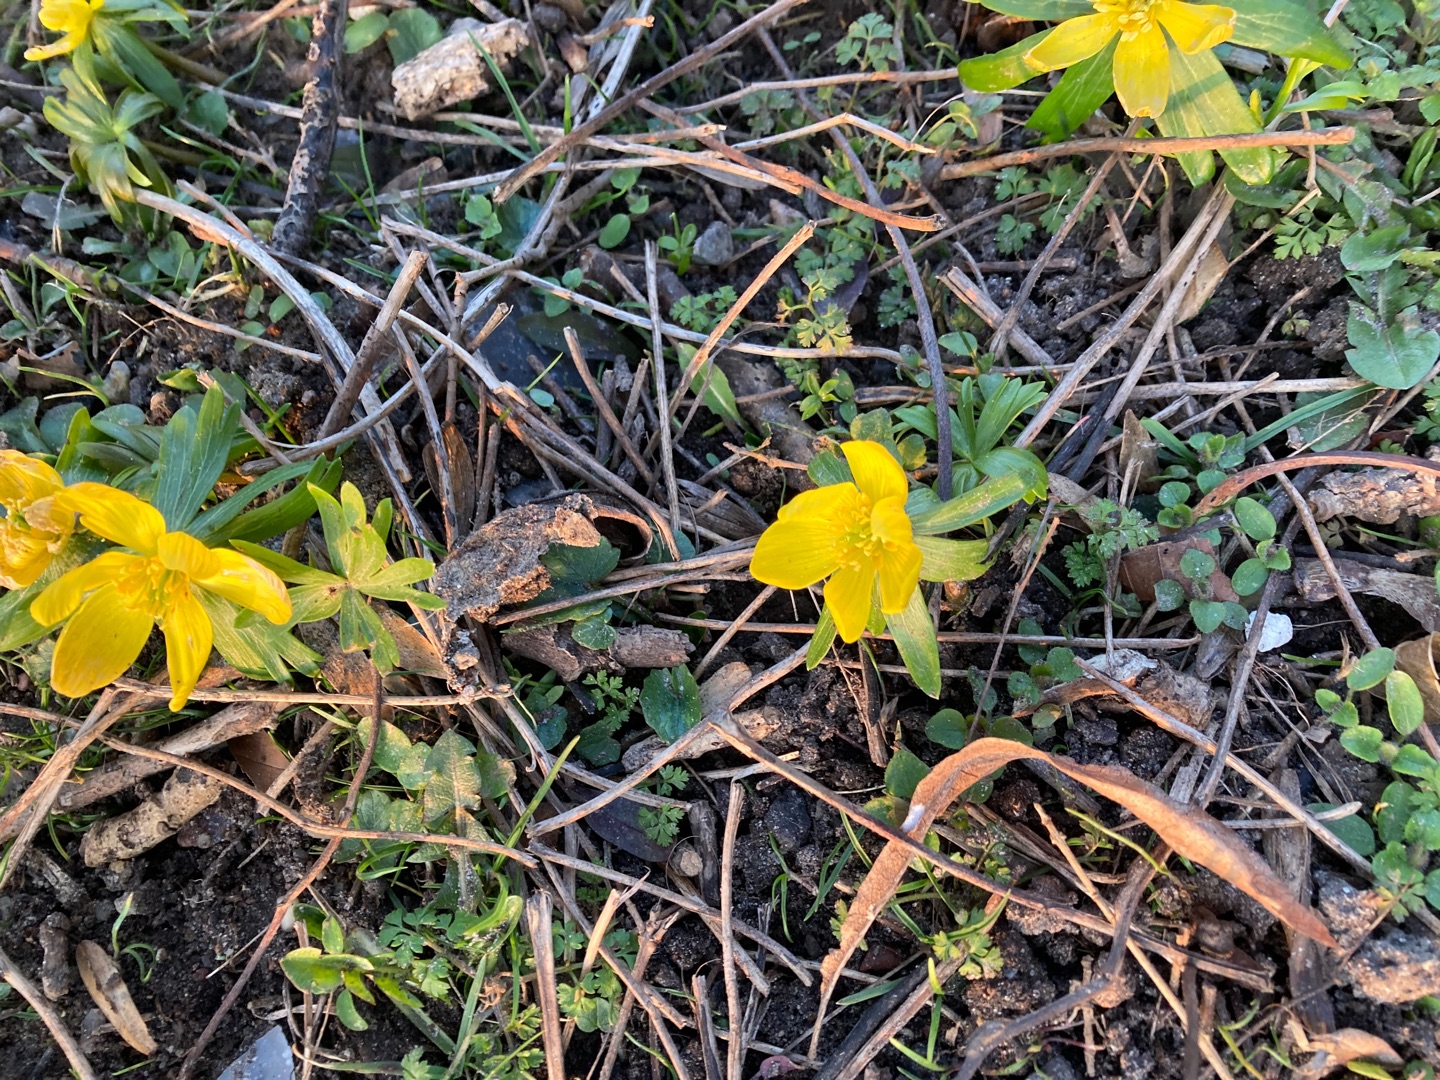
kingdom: Plantae
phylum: Tracheophyta
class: Magnoliopsida
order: Ranunculales
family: Ranunculaceae
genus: Eranthis
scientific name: Eranthis hyemalis
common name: Erantis
